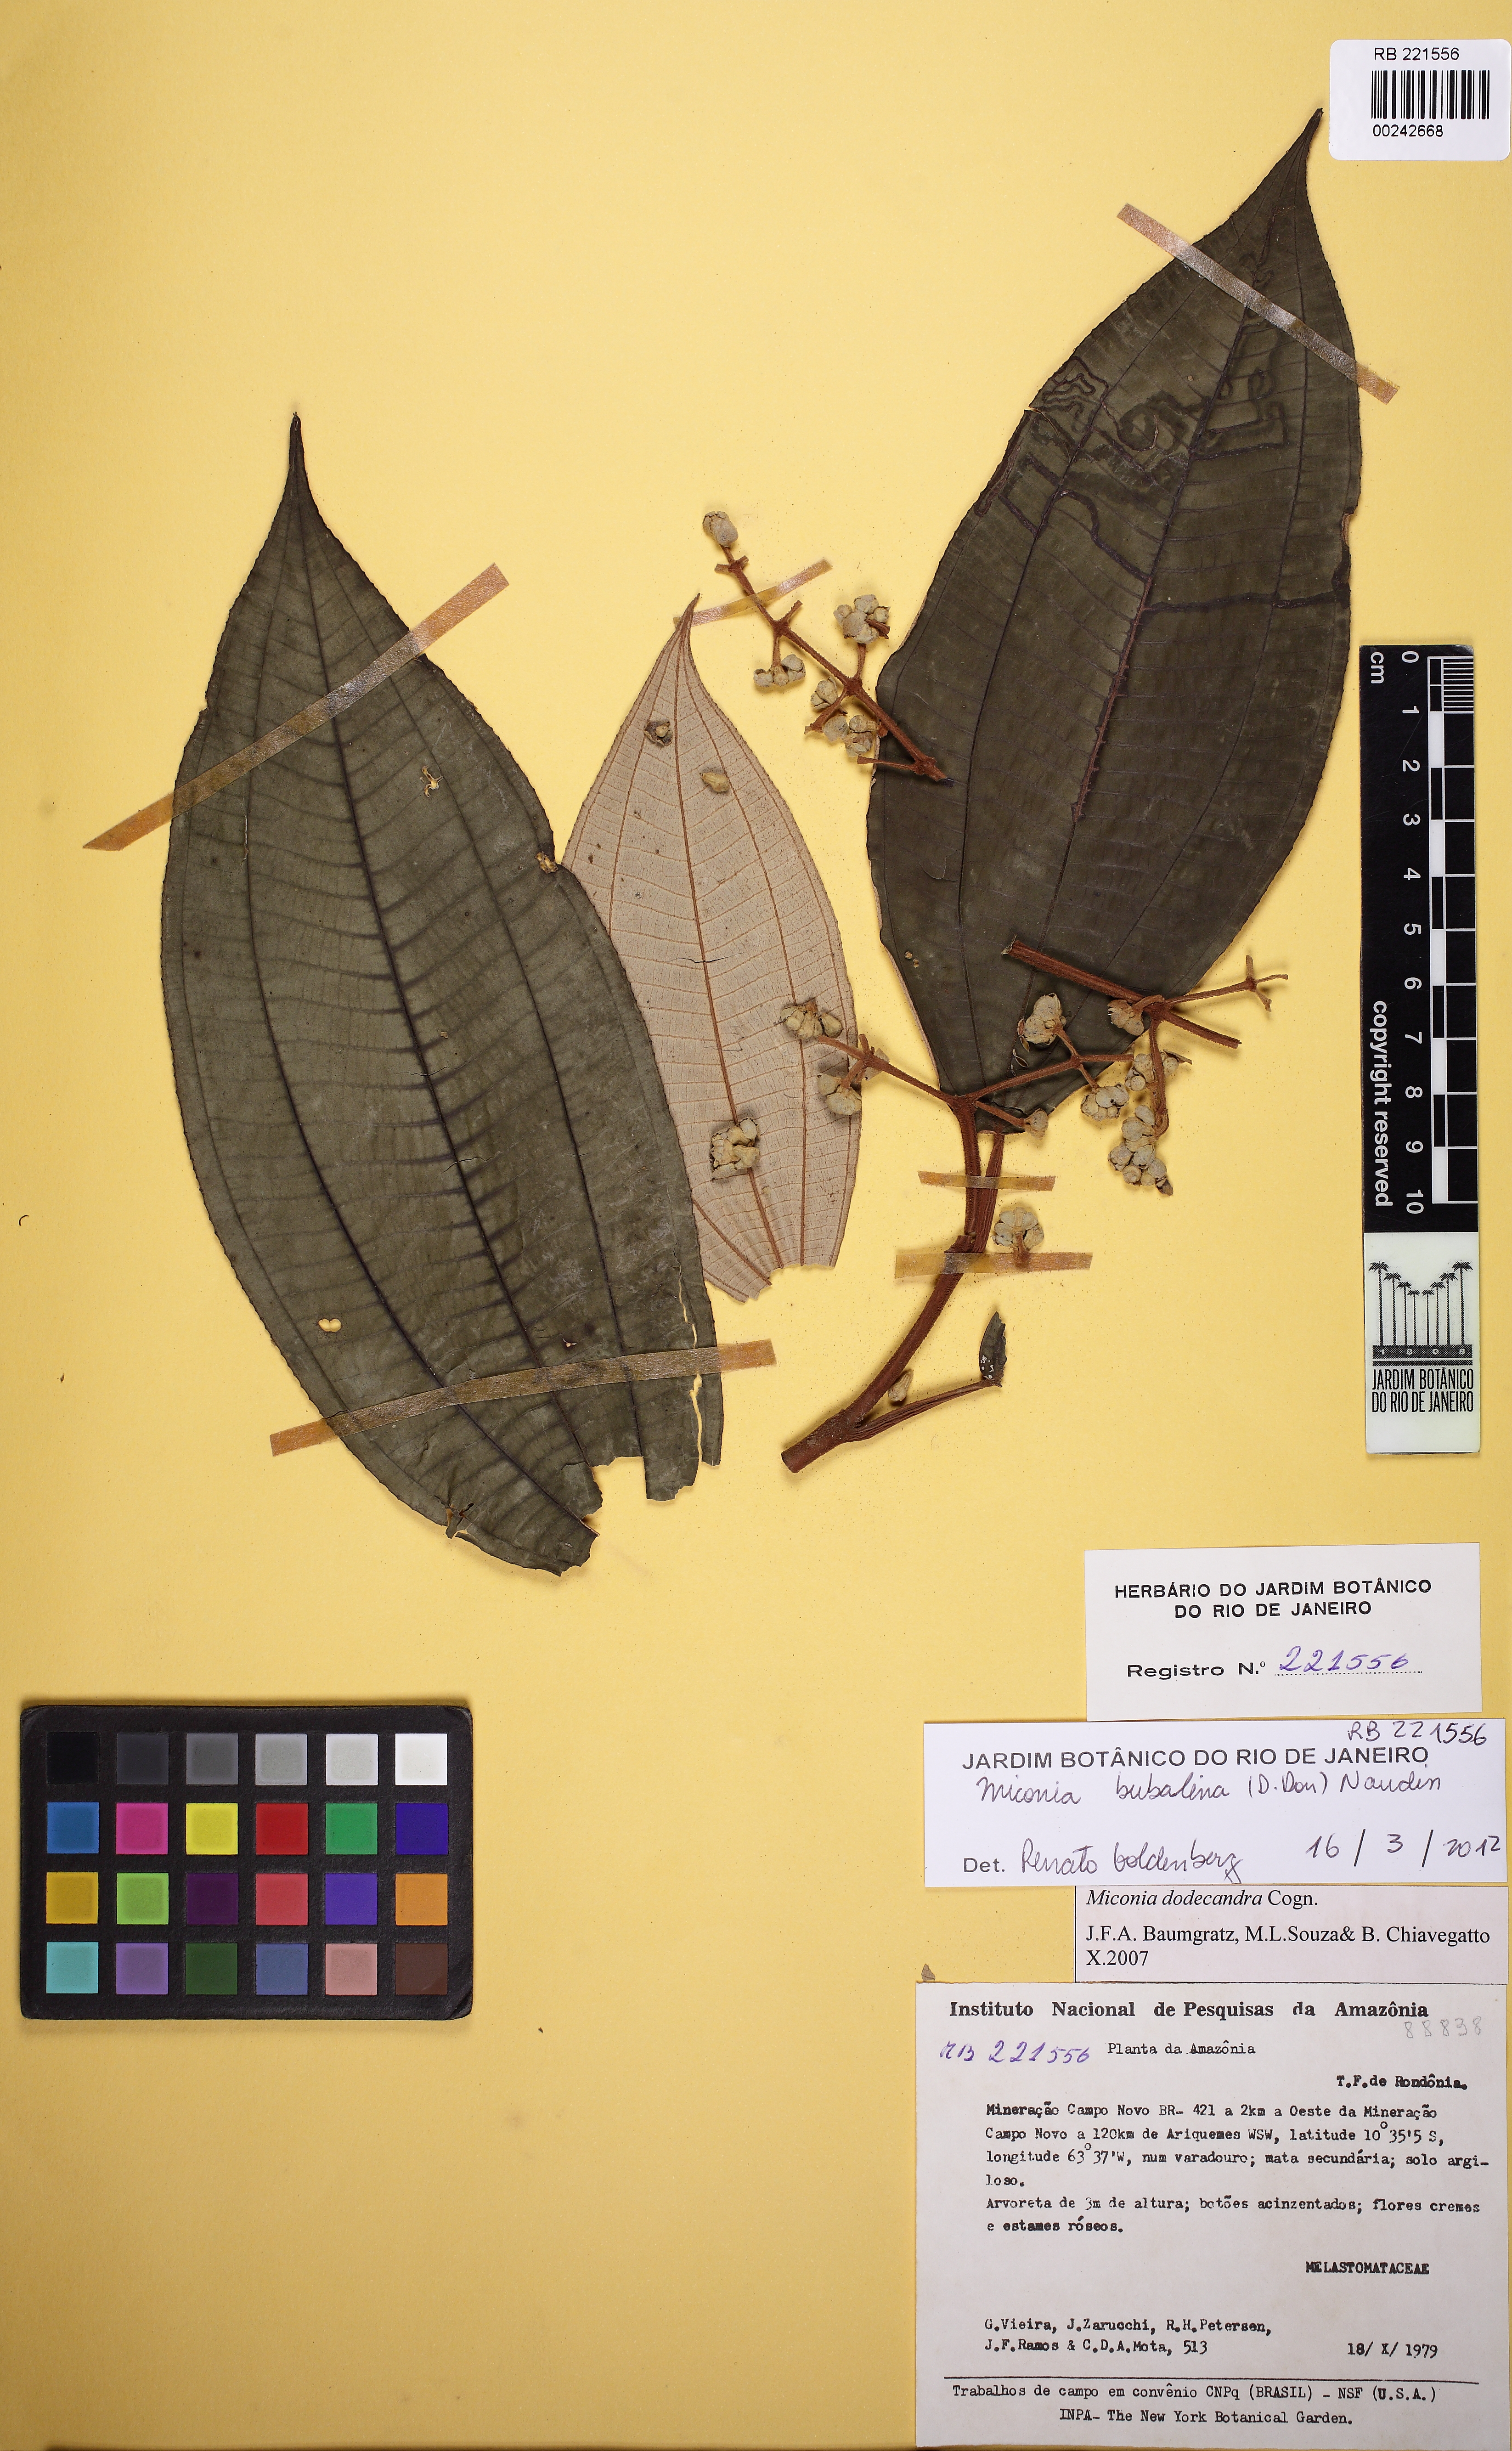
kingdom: Plantae
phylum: Tracheophyta
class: Magnoliopsida
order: Myrtales
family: Melastomataceae
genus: Miconia
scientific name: Miconia bubalina
